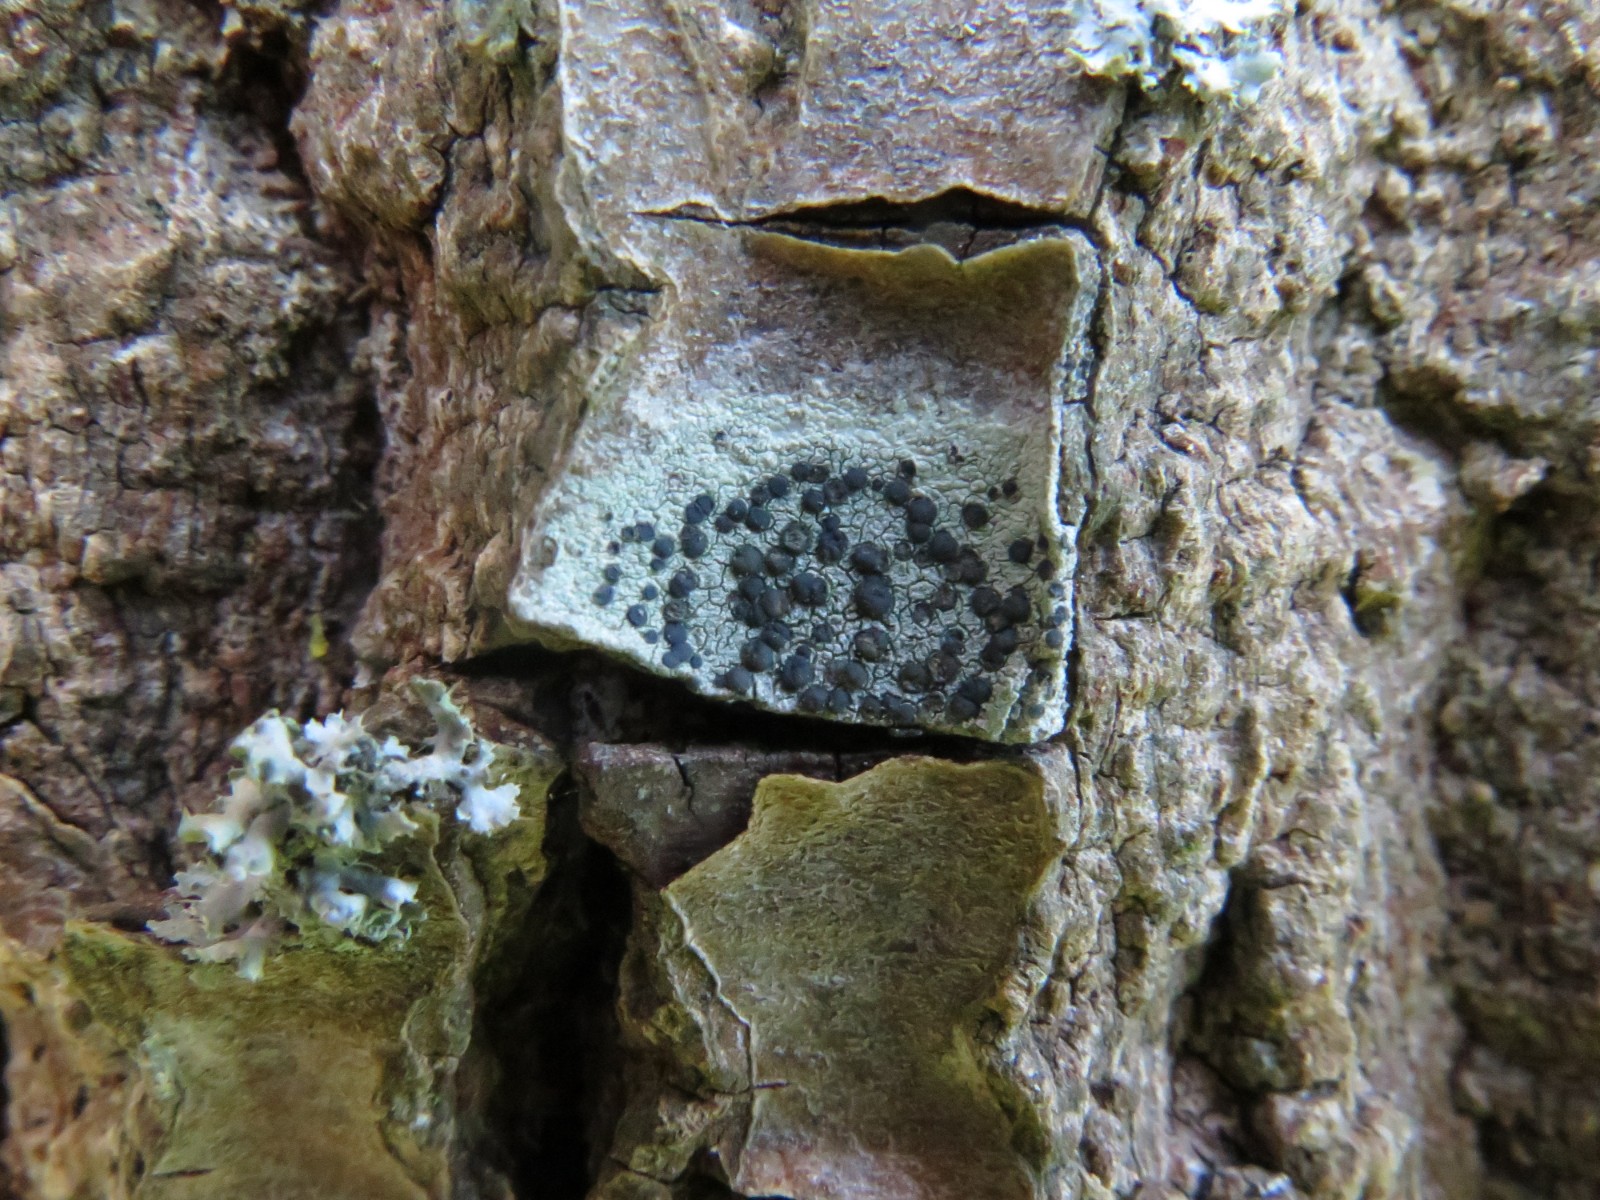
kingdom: Fungi
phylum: Ascomycota
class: Lecanoromycetes
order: Lecanorales
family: Lecanoraceae
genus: Lecidella
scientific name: Lecidella elaeochroma
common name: grågrøn skivelav
